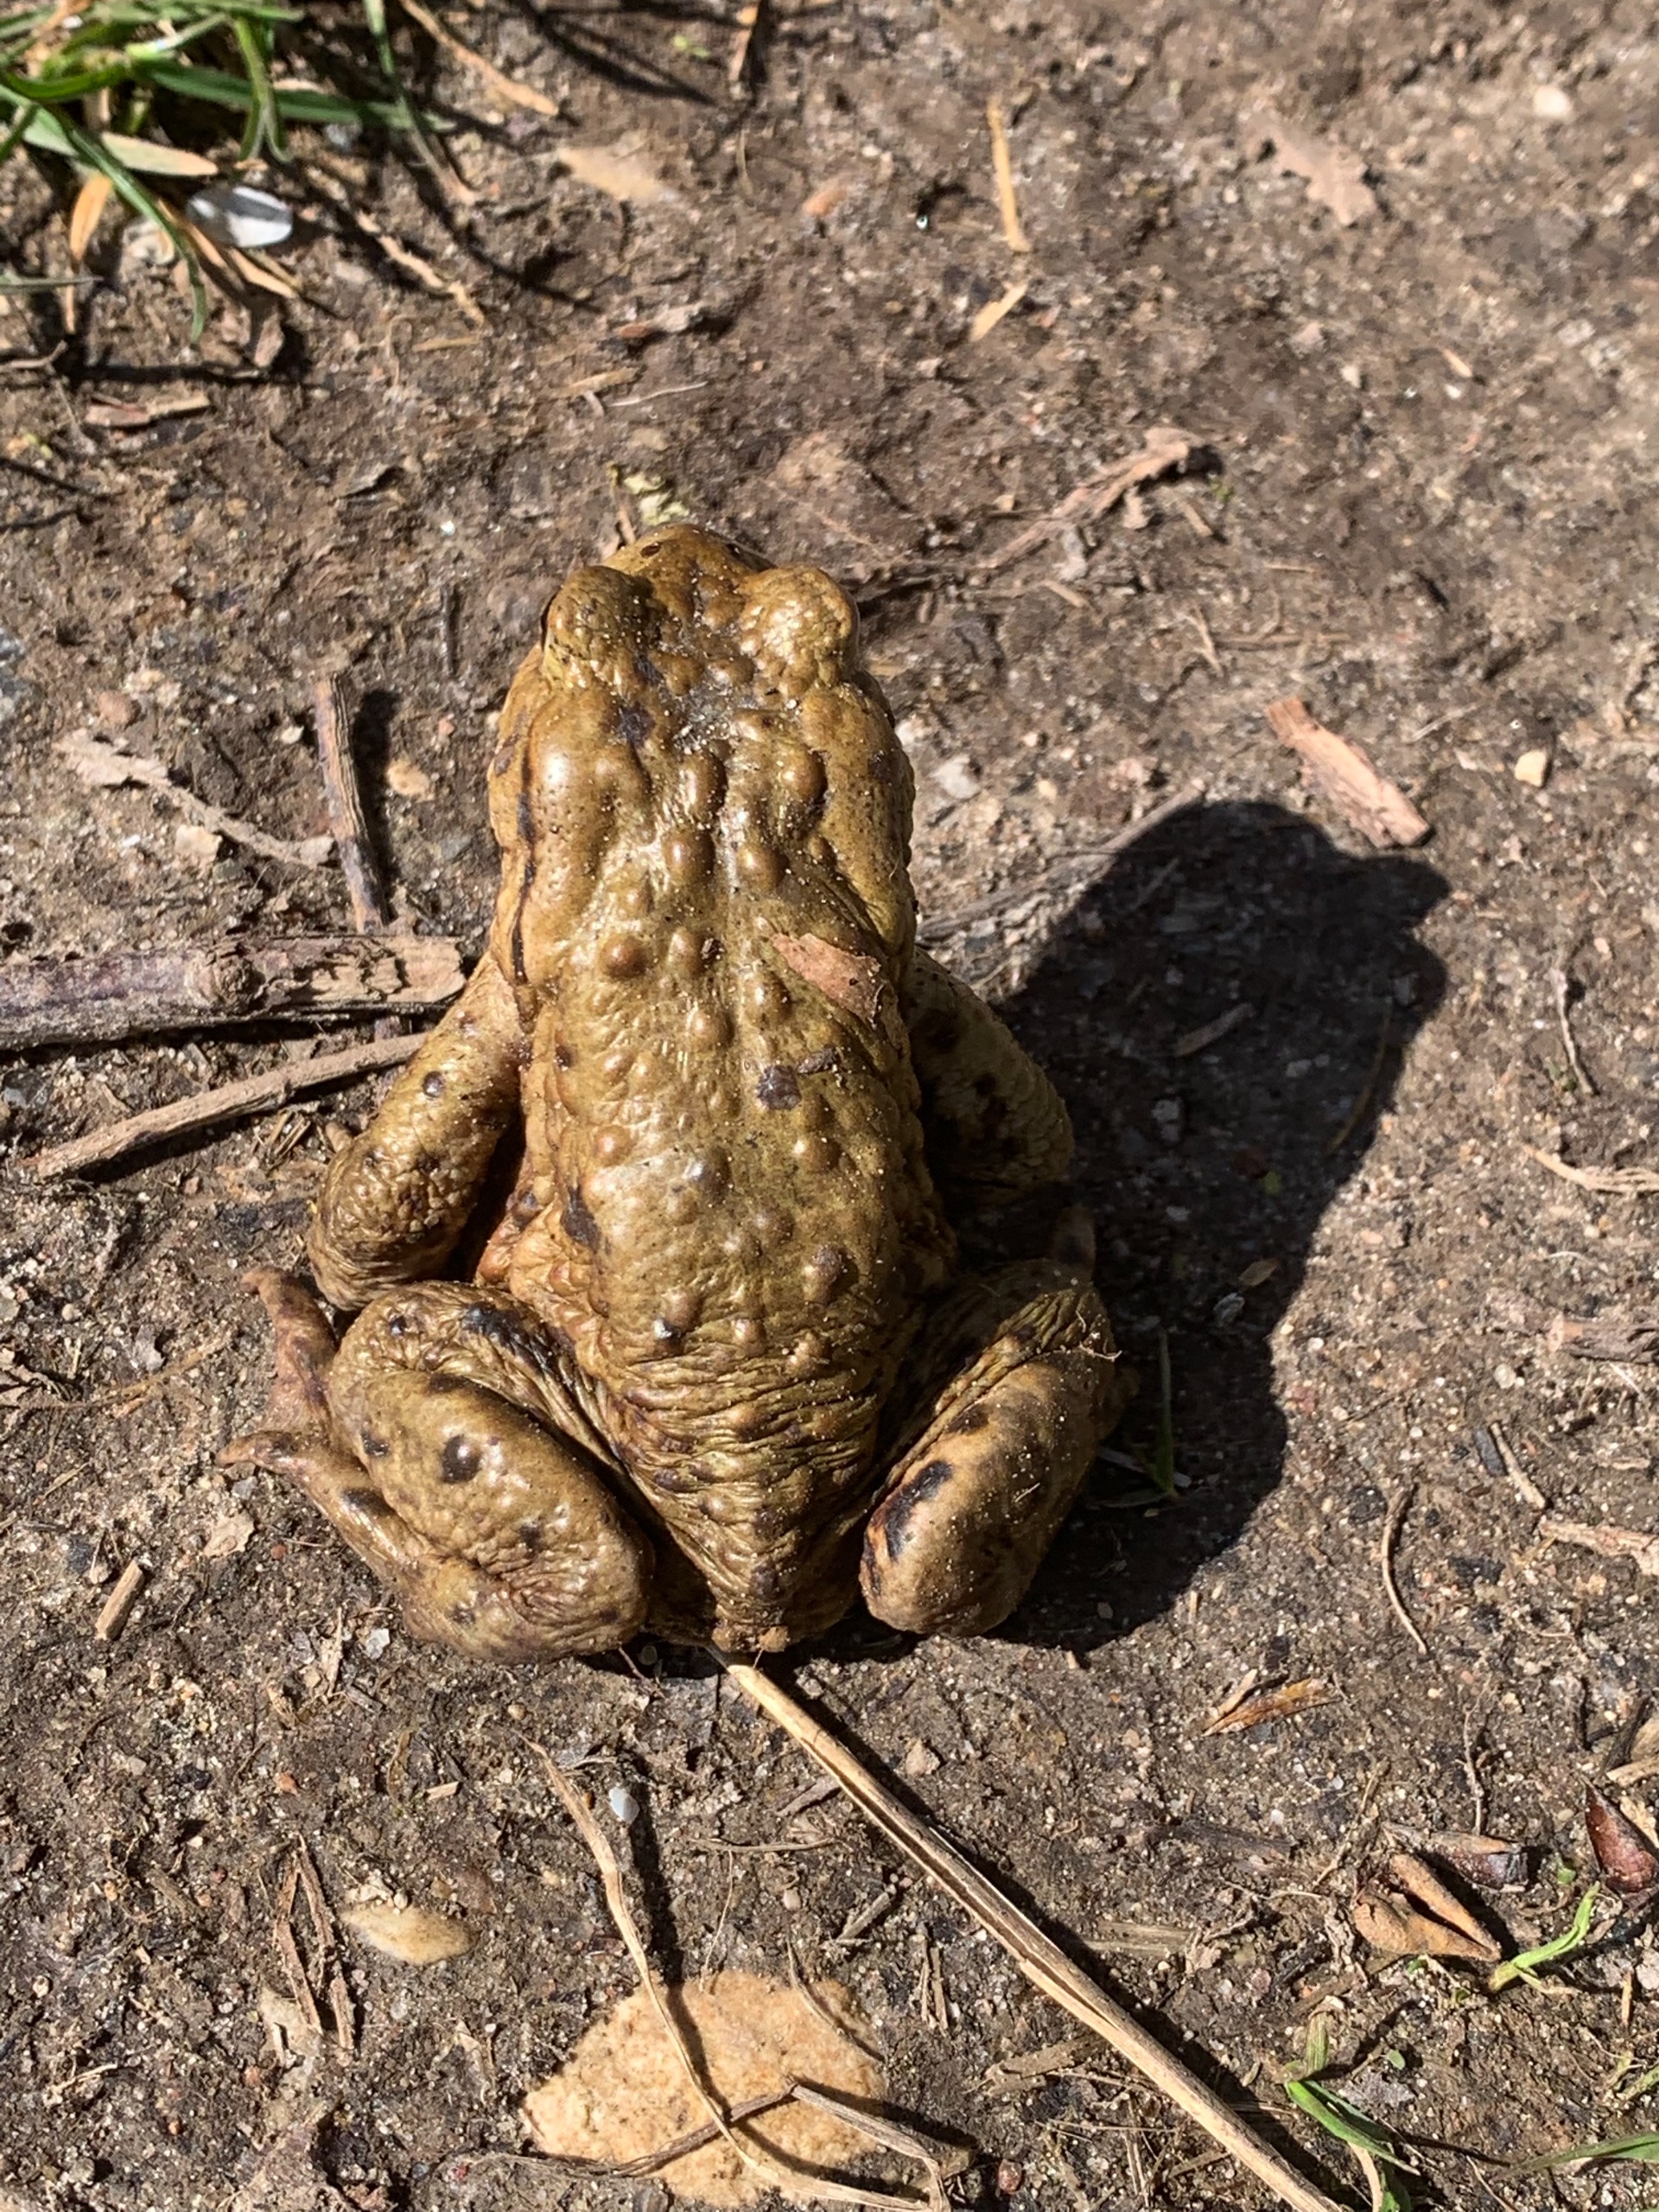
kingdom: Animalia
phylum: Chordata
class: Amphibia
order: Anura
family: Bufonidae
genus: Bufo
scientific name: Bufo bufo
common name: Skrubtudse
